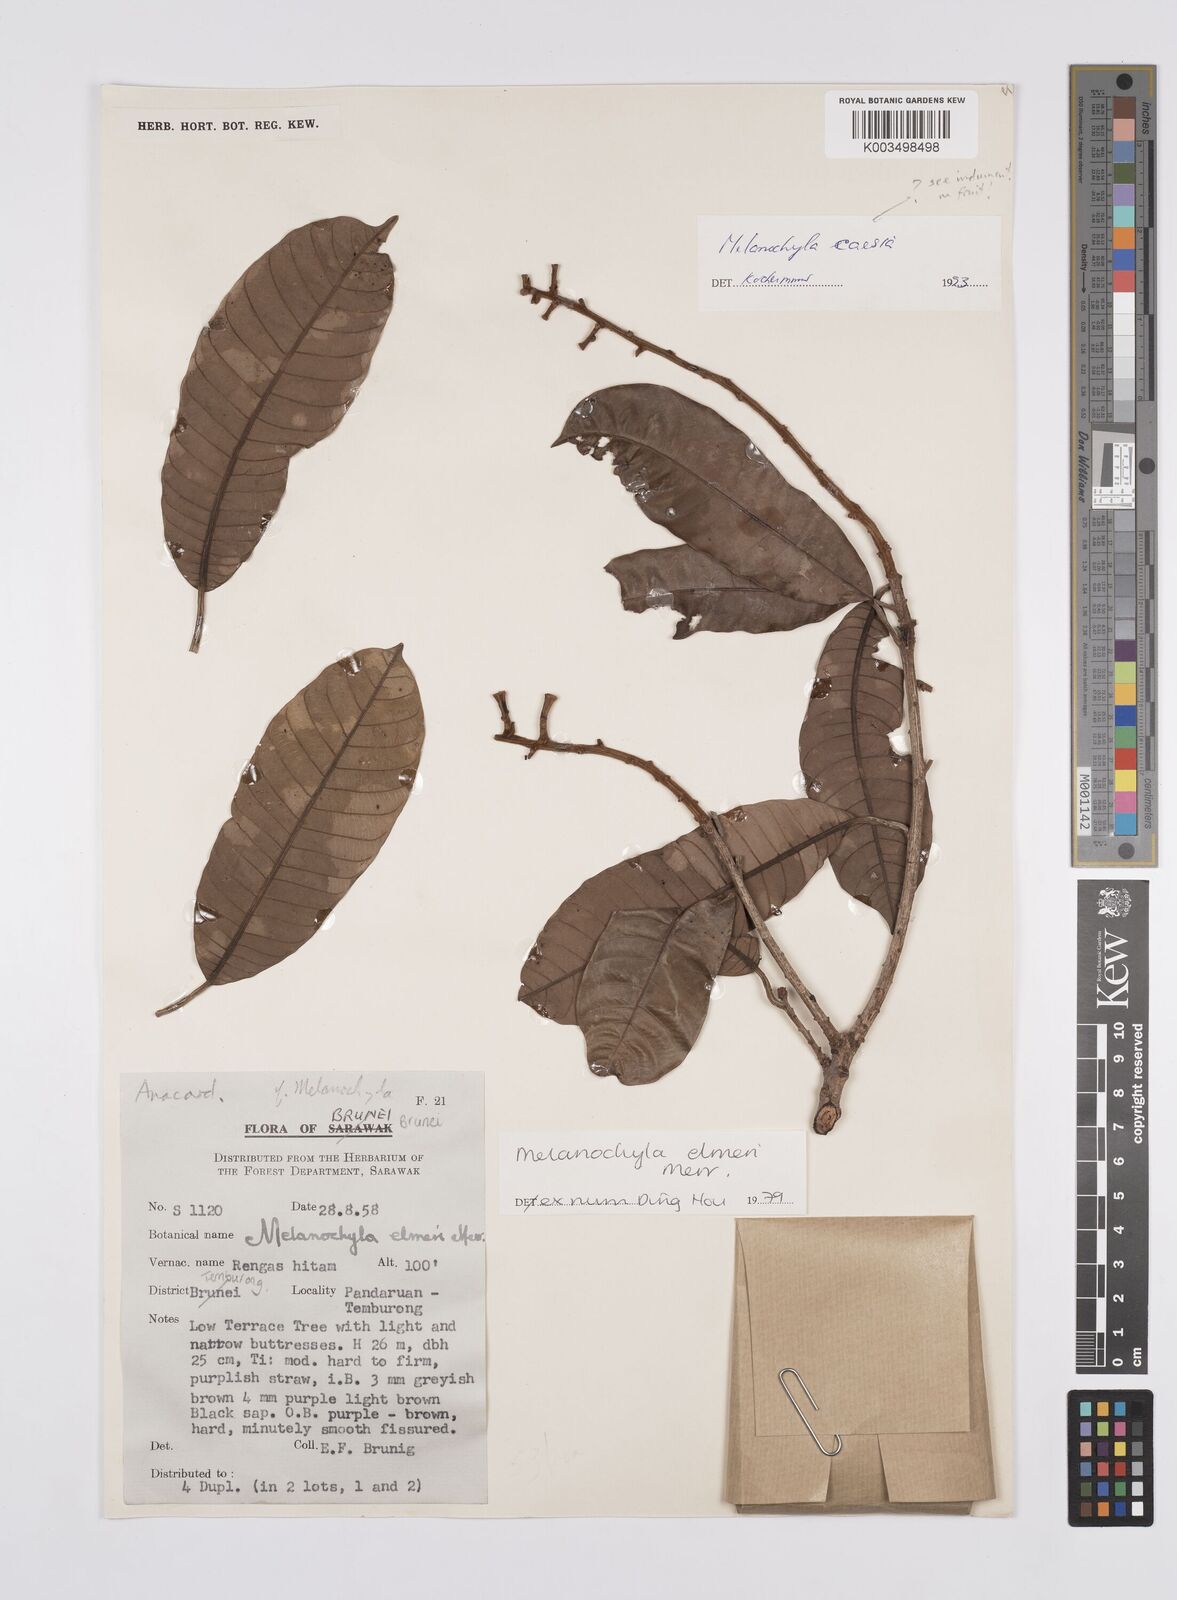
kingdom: Plantae
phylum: Tracheophyta
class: Magnoliopsida
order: Sapindales
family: Anacardiaceae
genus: Melanochyla
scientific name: Melanochyla elmeri
